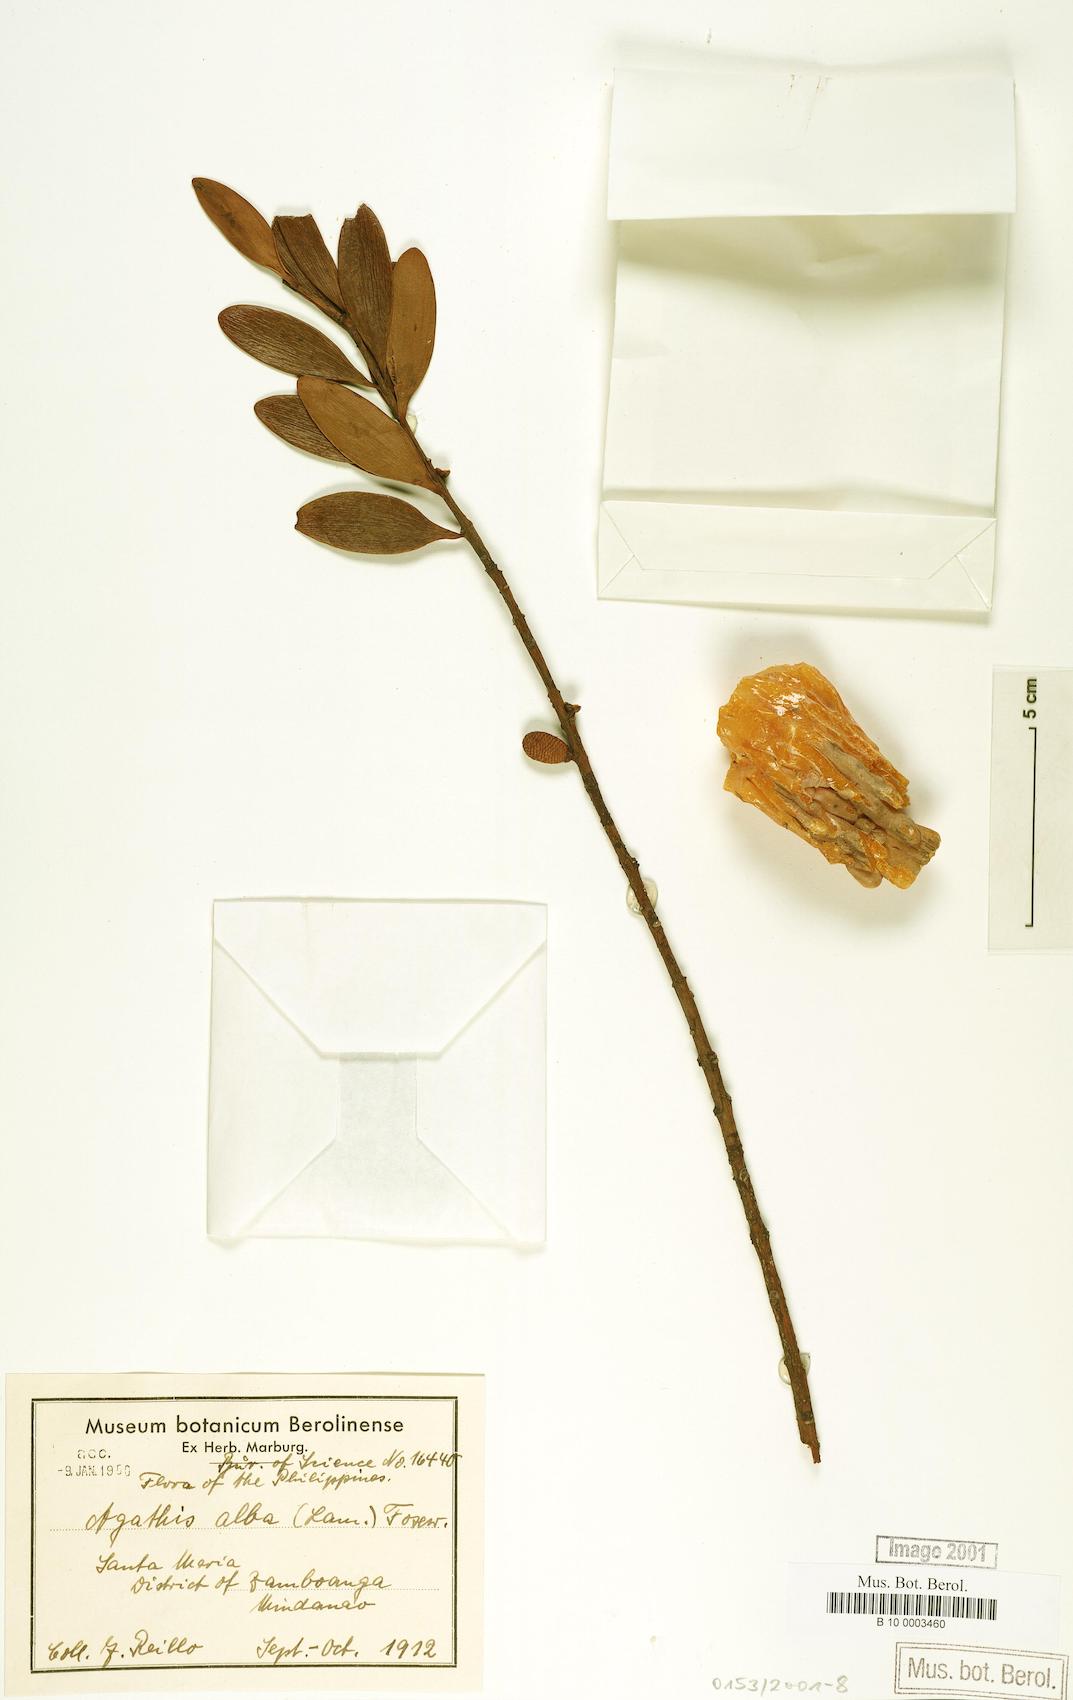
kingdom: Plantae
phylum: Tracheophyta
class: Pinopsida
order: Pinales
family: Araucariaceae
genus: Agathis
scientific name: Agathis dammara
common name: Amboina pitch tree
